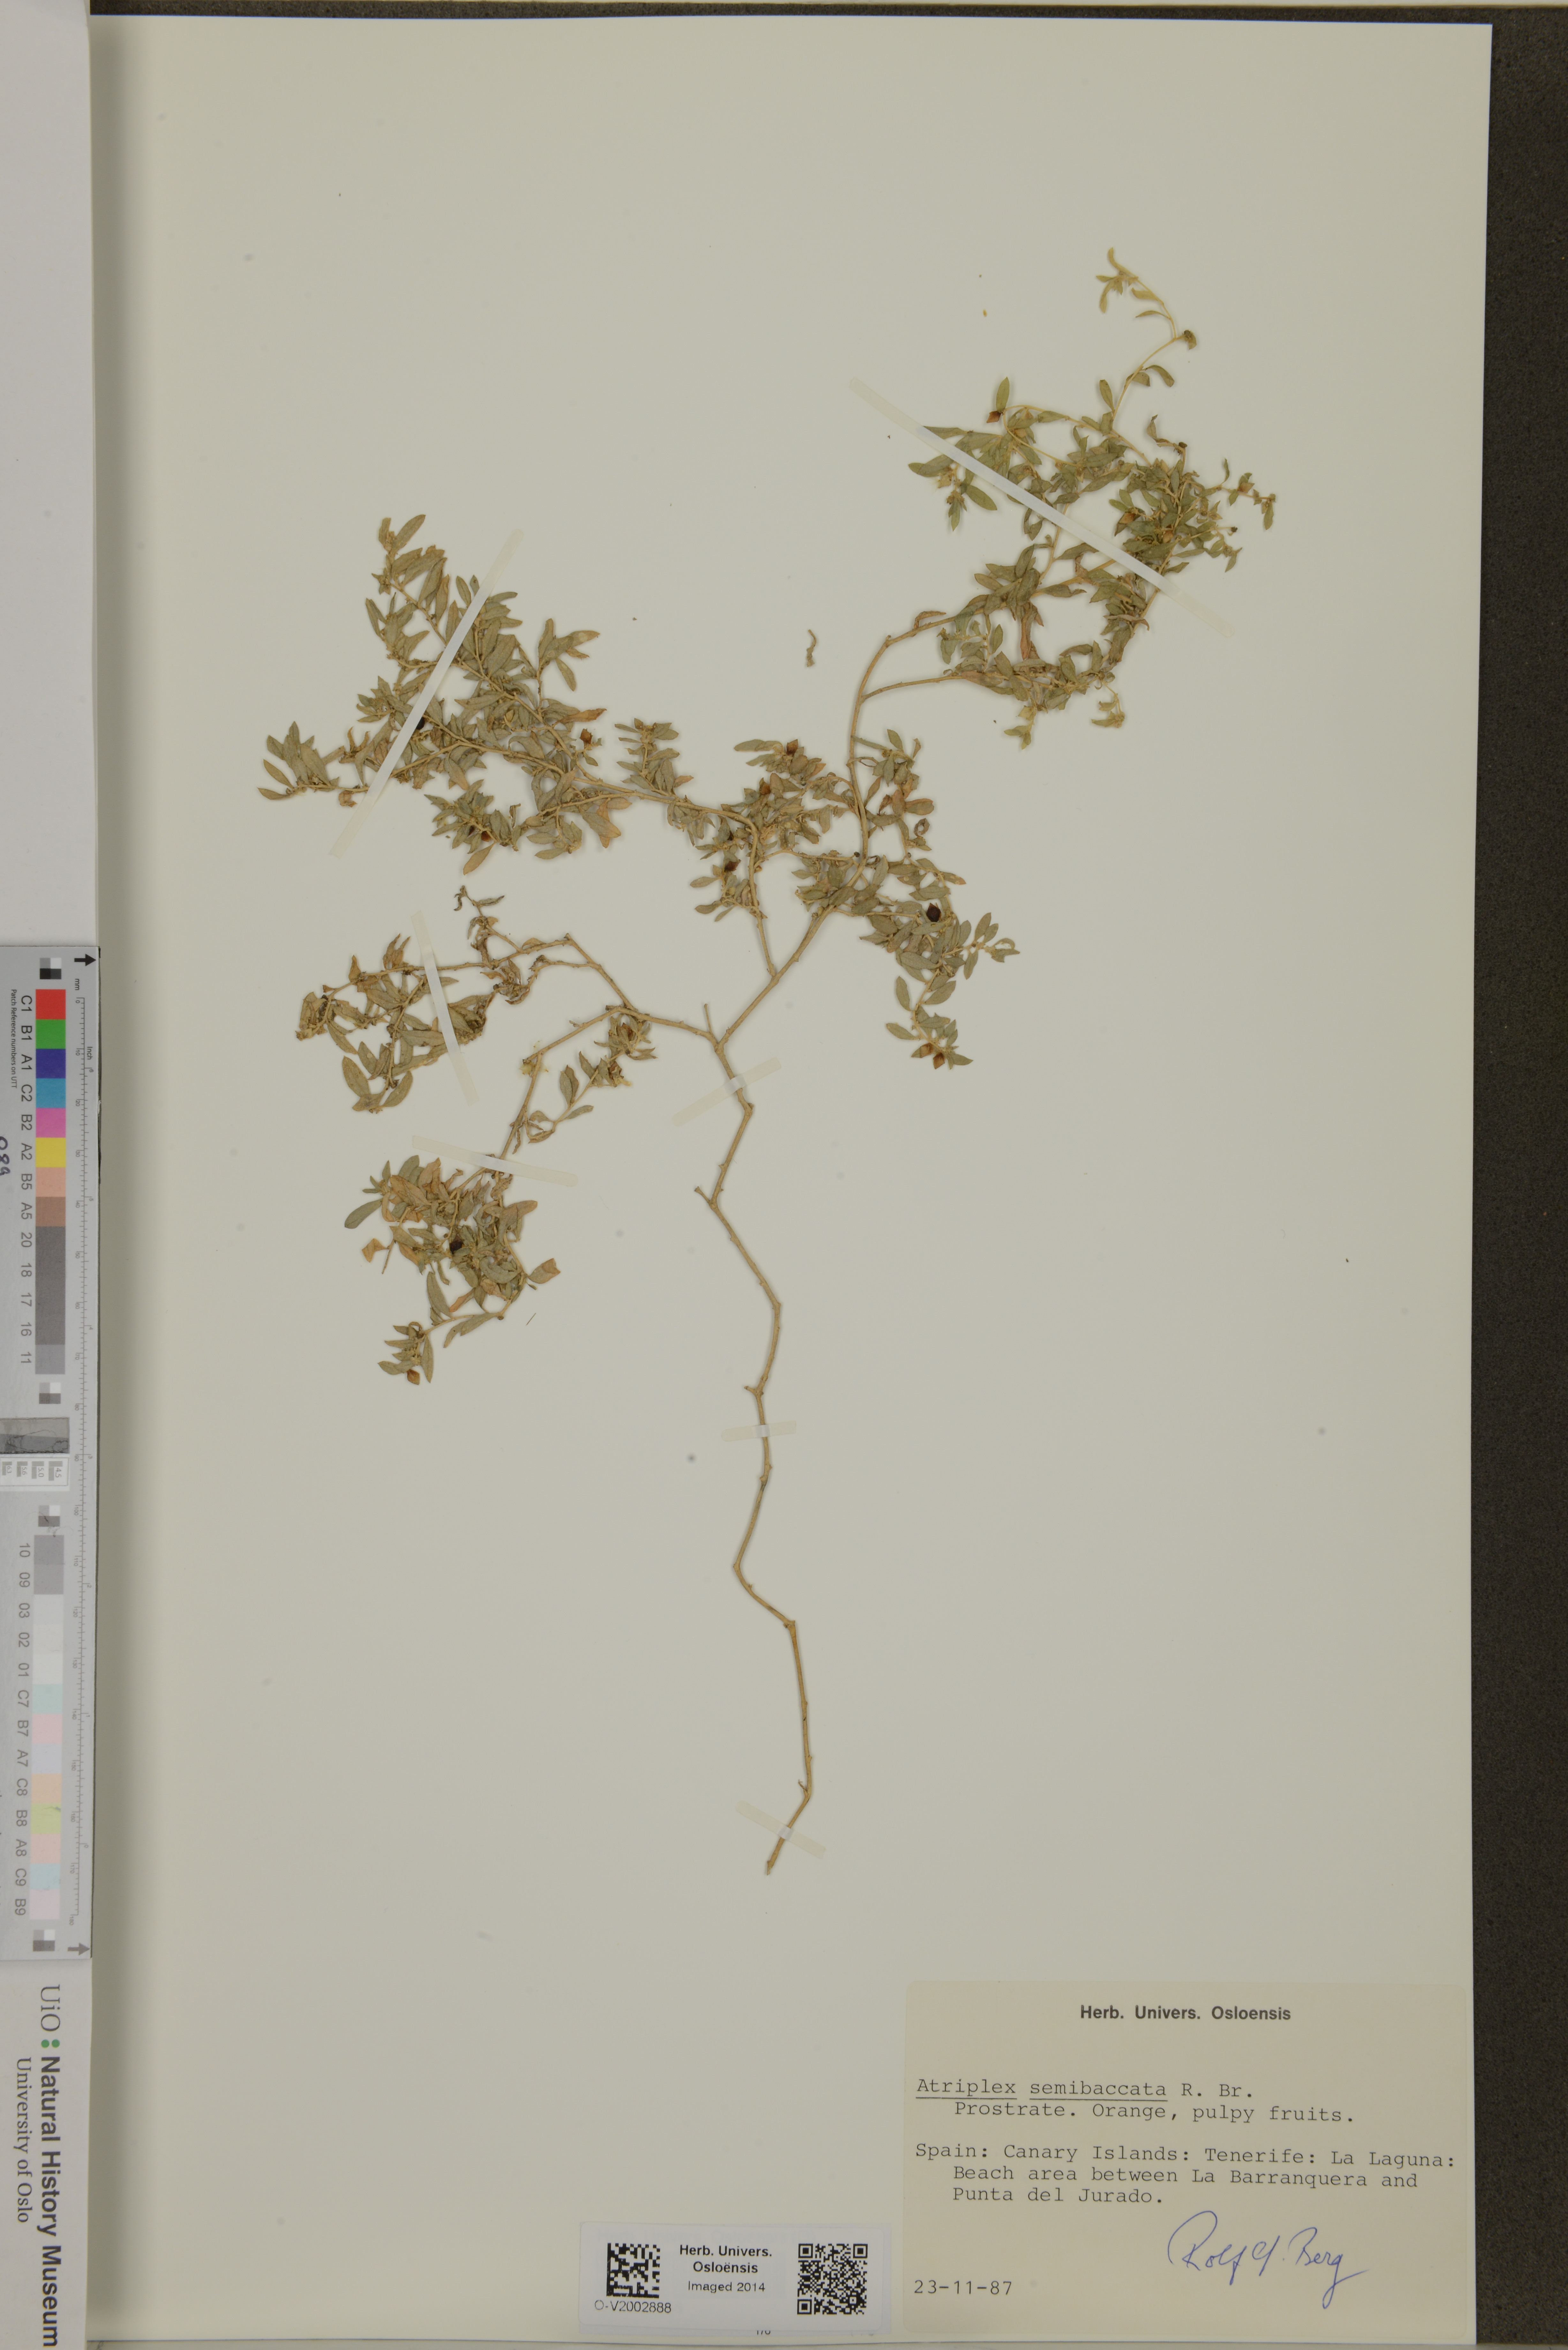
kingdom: Plantae
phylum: Tracheophyta
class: Magnoliopsida
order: Caryophyllales
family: Amaranthaceae
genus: Atriplex
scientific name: Atriplex semibaccata
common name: Australian saltbush
